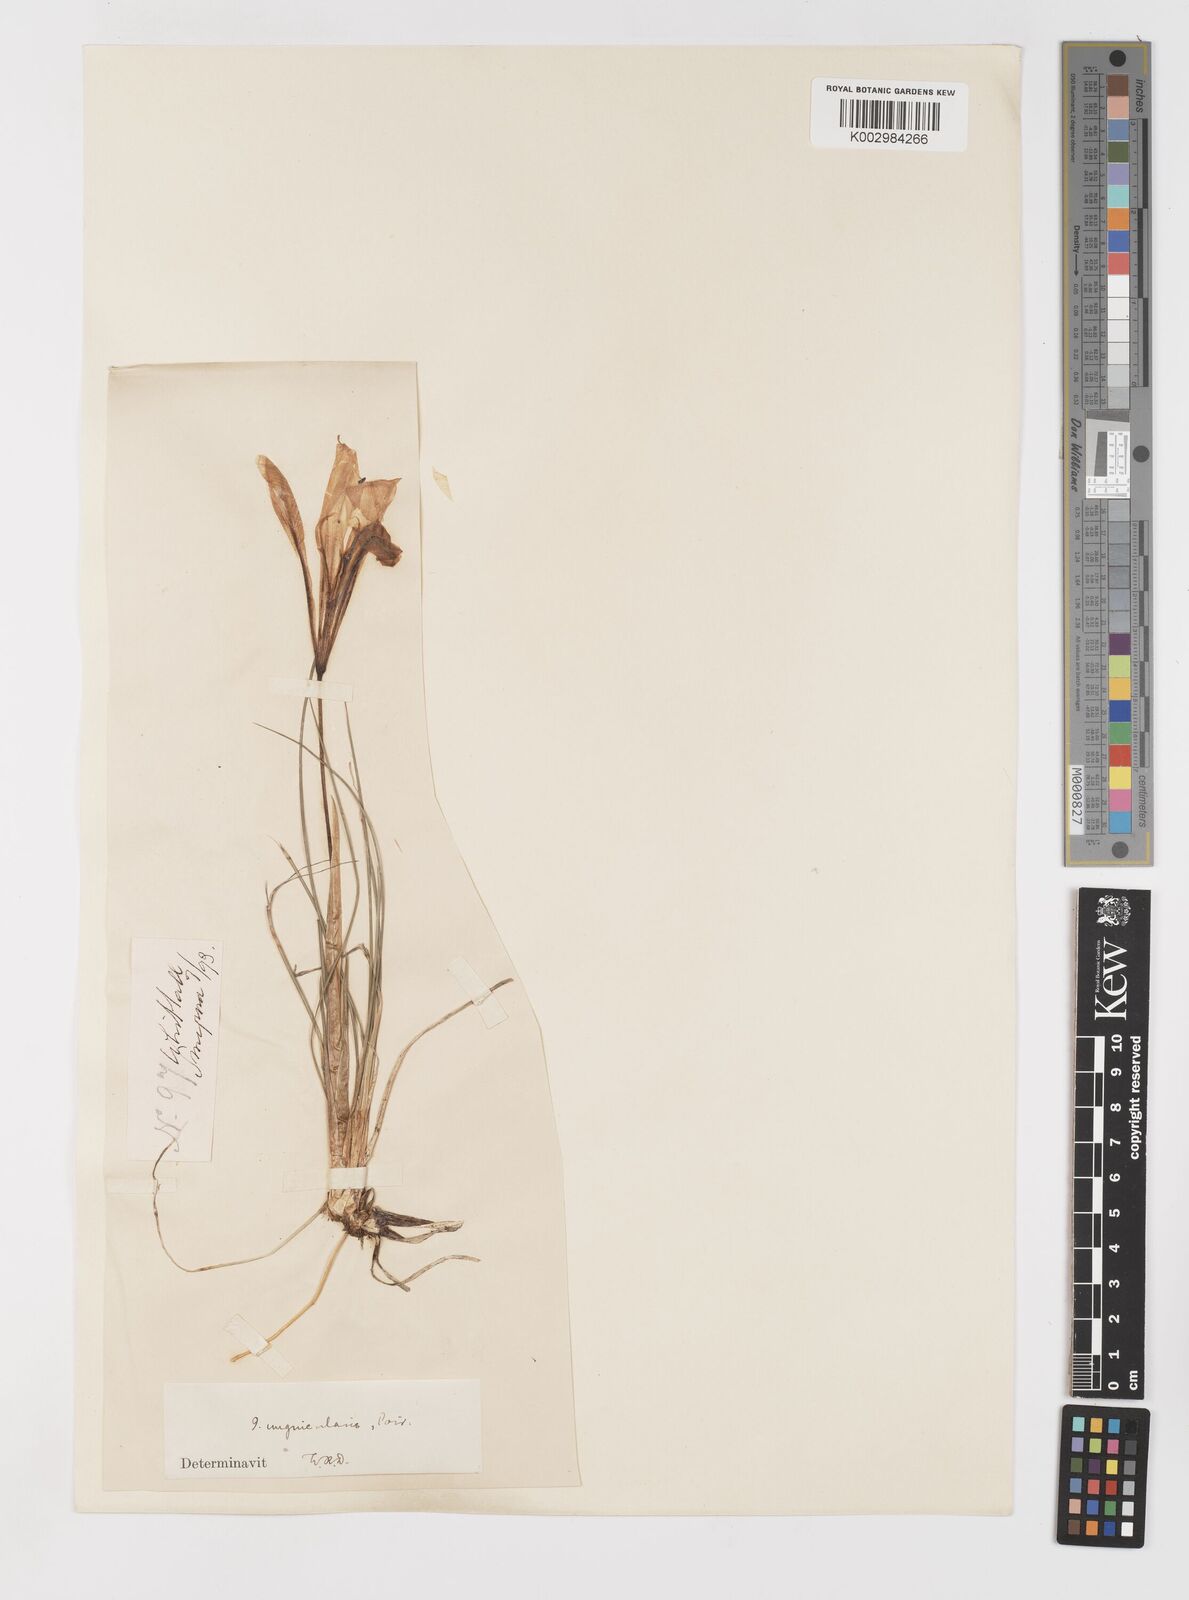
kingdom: Plantae
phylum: Tracheophyta
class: Liliopsida
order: Asparagales
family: Iridaceae
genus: Iris
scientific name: Iris unguicularis
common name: Algerian iris
